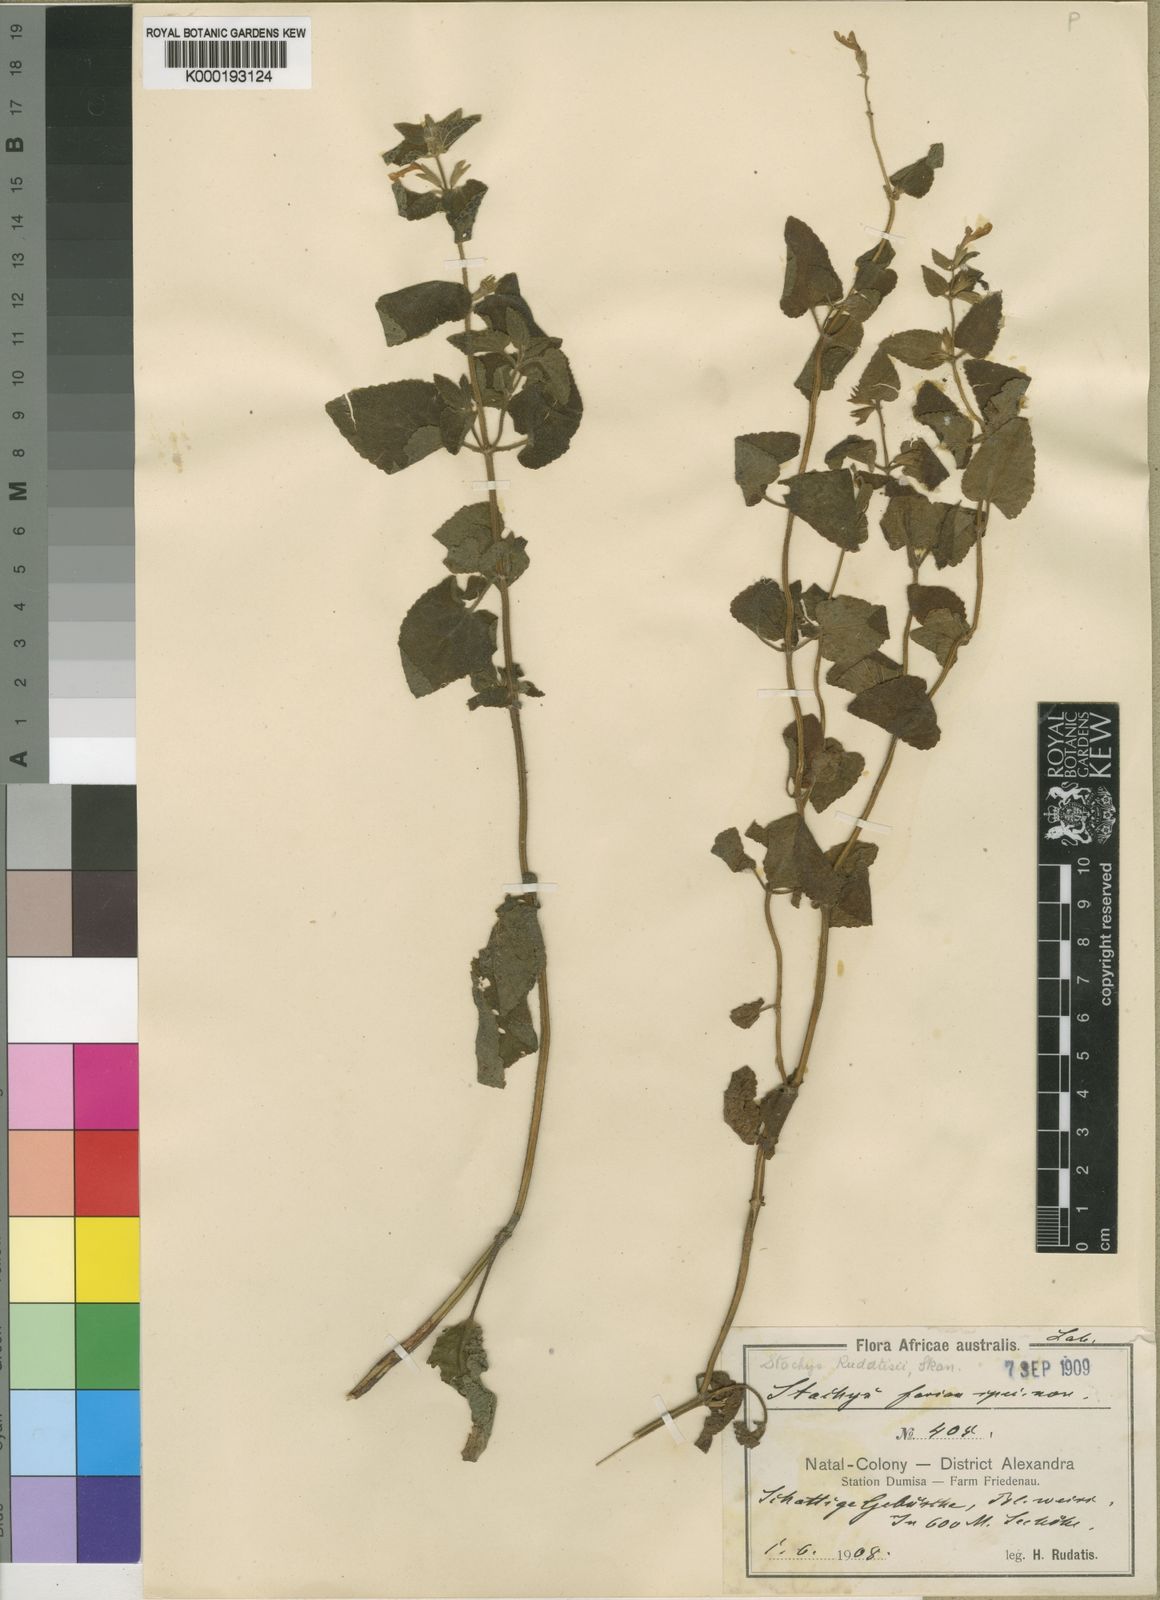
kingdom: Plantae
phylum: Tracheophyta
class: Magnoliopsida
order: Lamiales
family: Lamiaceae
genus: Stachys
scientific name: Stachys rudatisii
